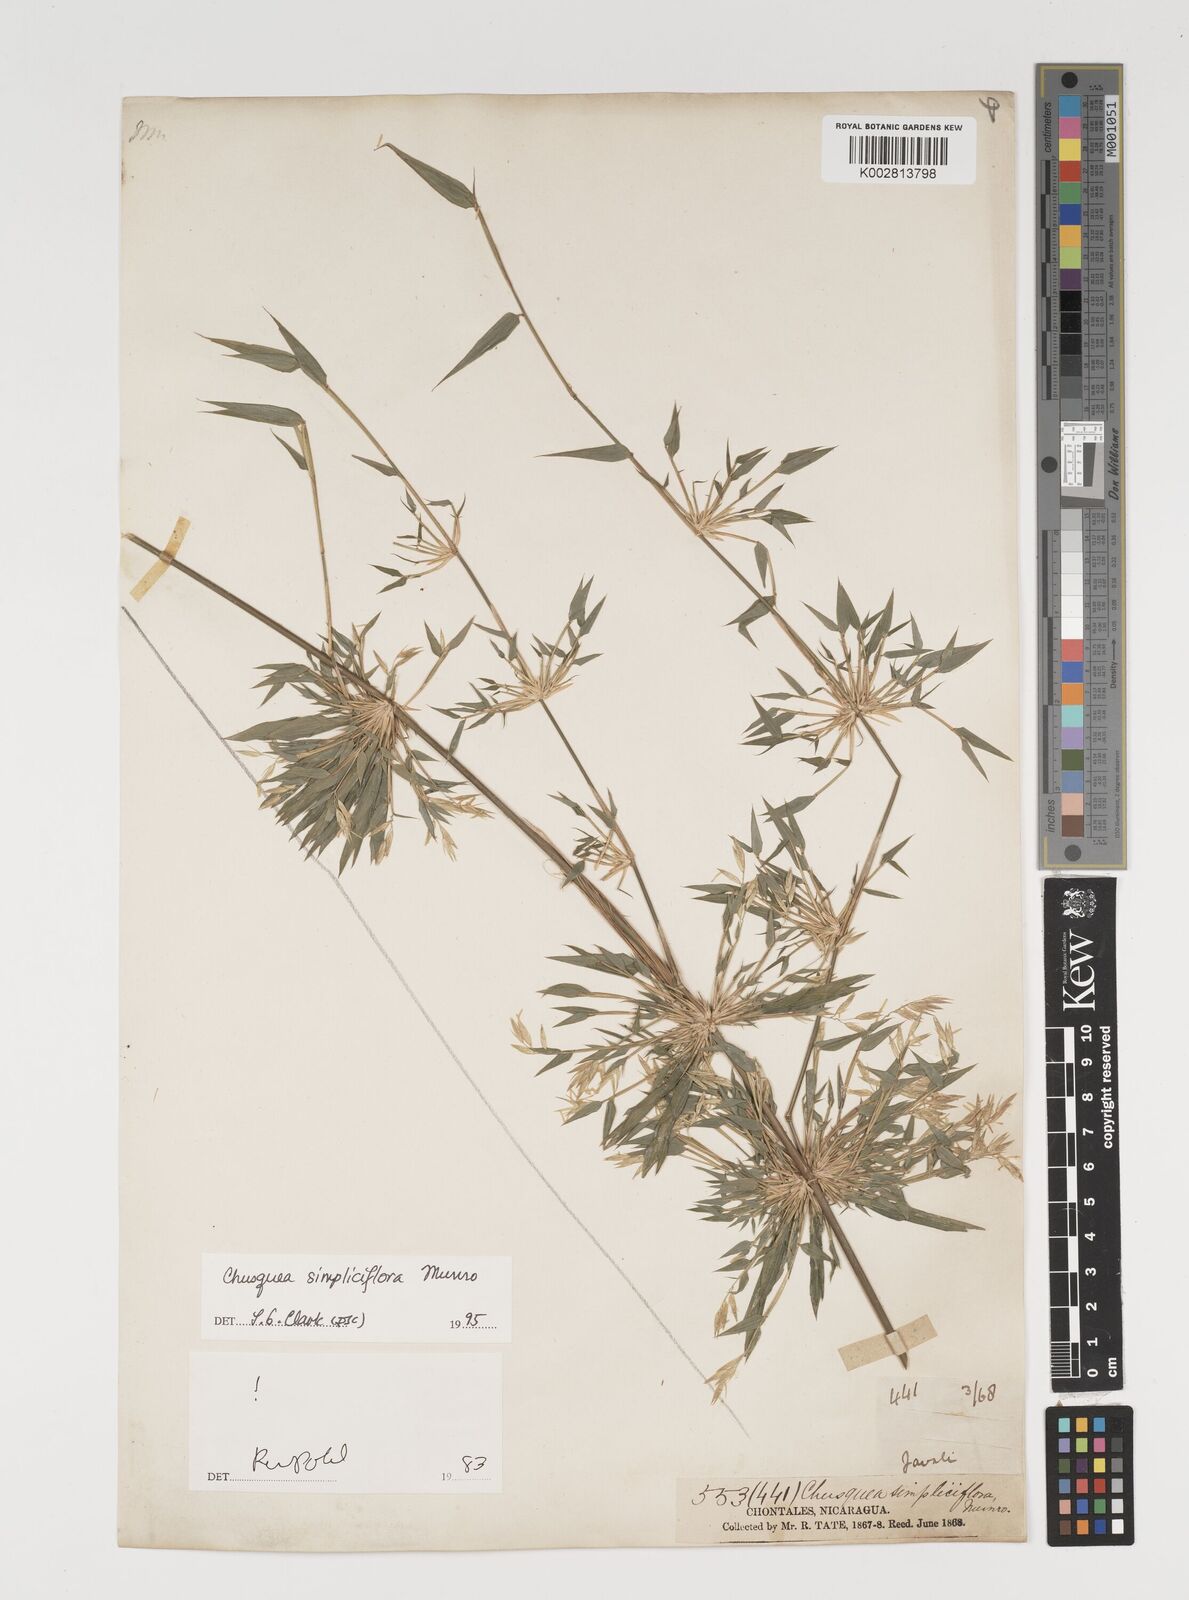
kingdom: Plantae
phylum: Tracheophyta
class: Liliopsida
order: Poales
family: Poaceae
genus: Chusquea
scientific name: Chusquea simpliciflora
